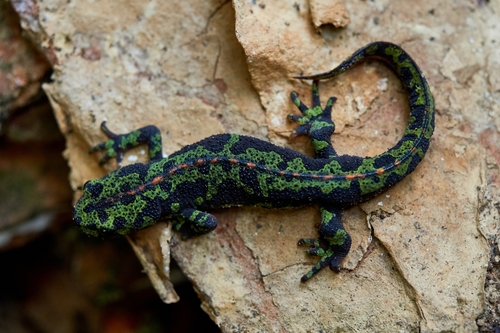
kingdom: Animalia
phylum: Chordata
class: Amphibia
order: Caudata
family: Salamandridae
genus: Triturus
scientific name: Triturus marmoratus
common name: Marbled newt
